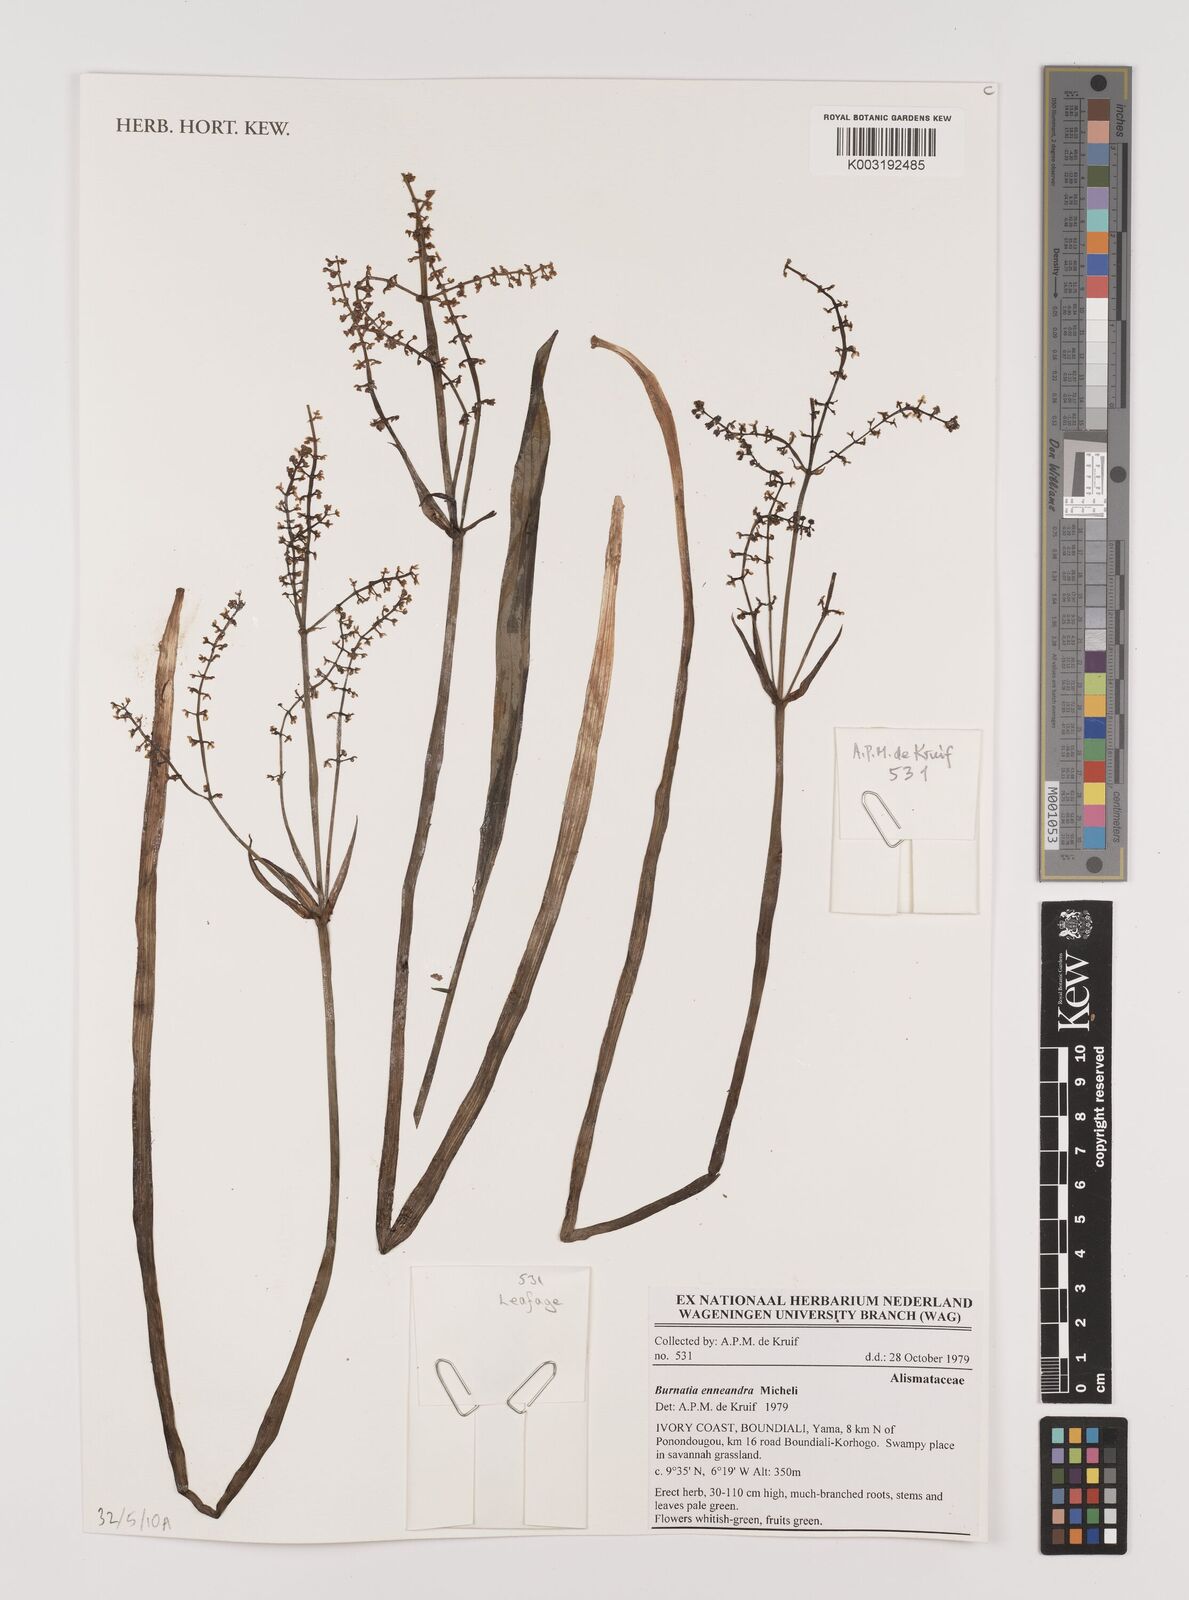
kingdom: Plantae
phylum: Tracheophyta
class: Liliopsida
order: Alismatales
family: Alismataceae
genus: Burnatia
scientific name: Burnatia enneandra
